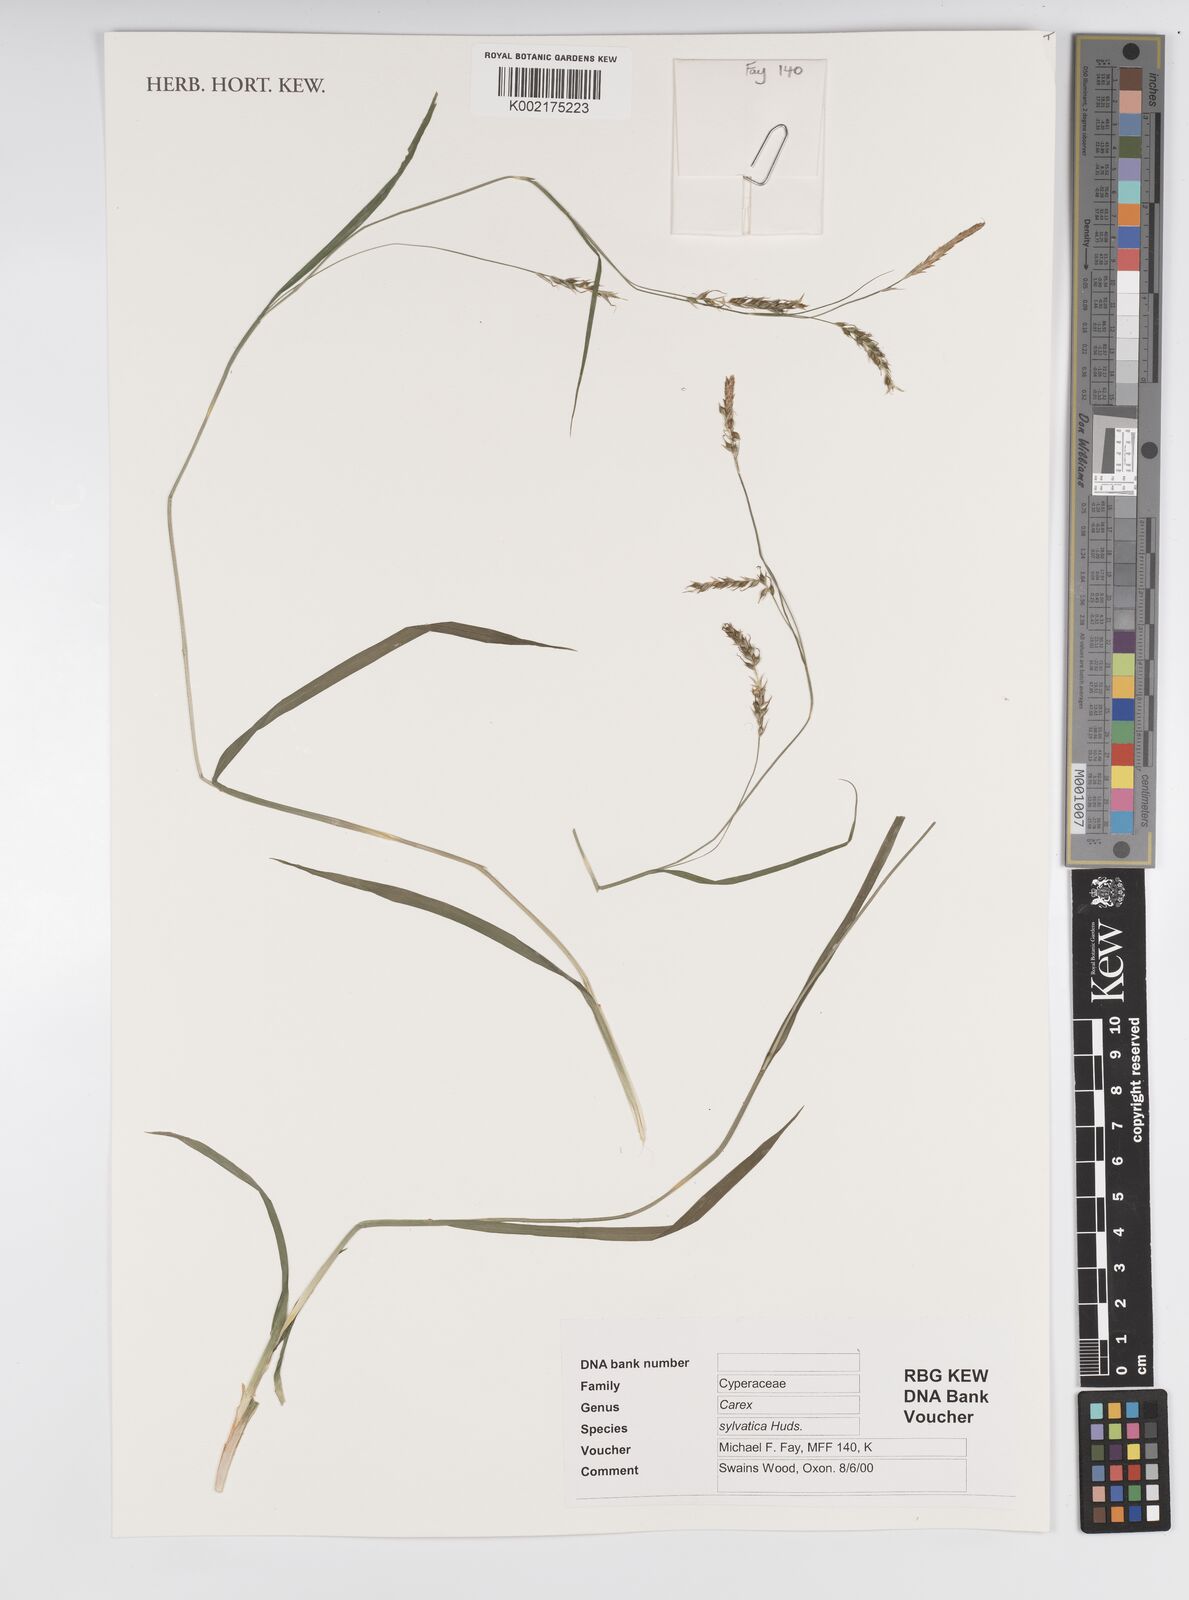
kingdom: Plantae
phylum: Tracheophyta
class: Liliopsida
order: Poales
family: Cyperaceae
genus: Carex
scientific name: Carex sylvatica
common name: Wood-sedge
